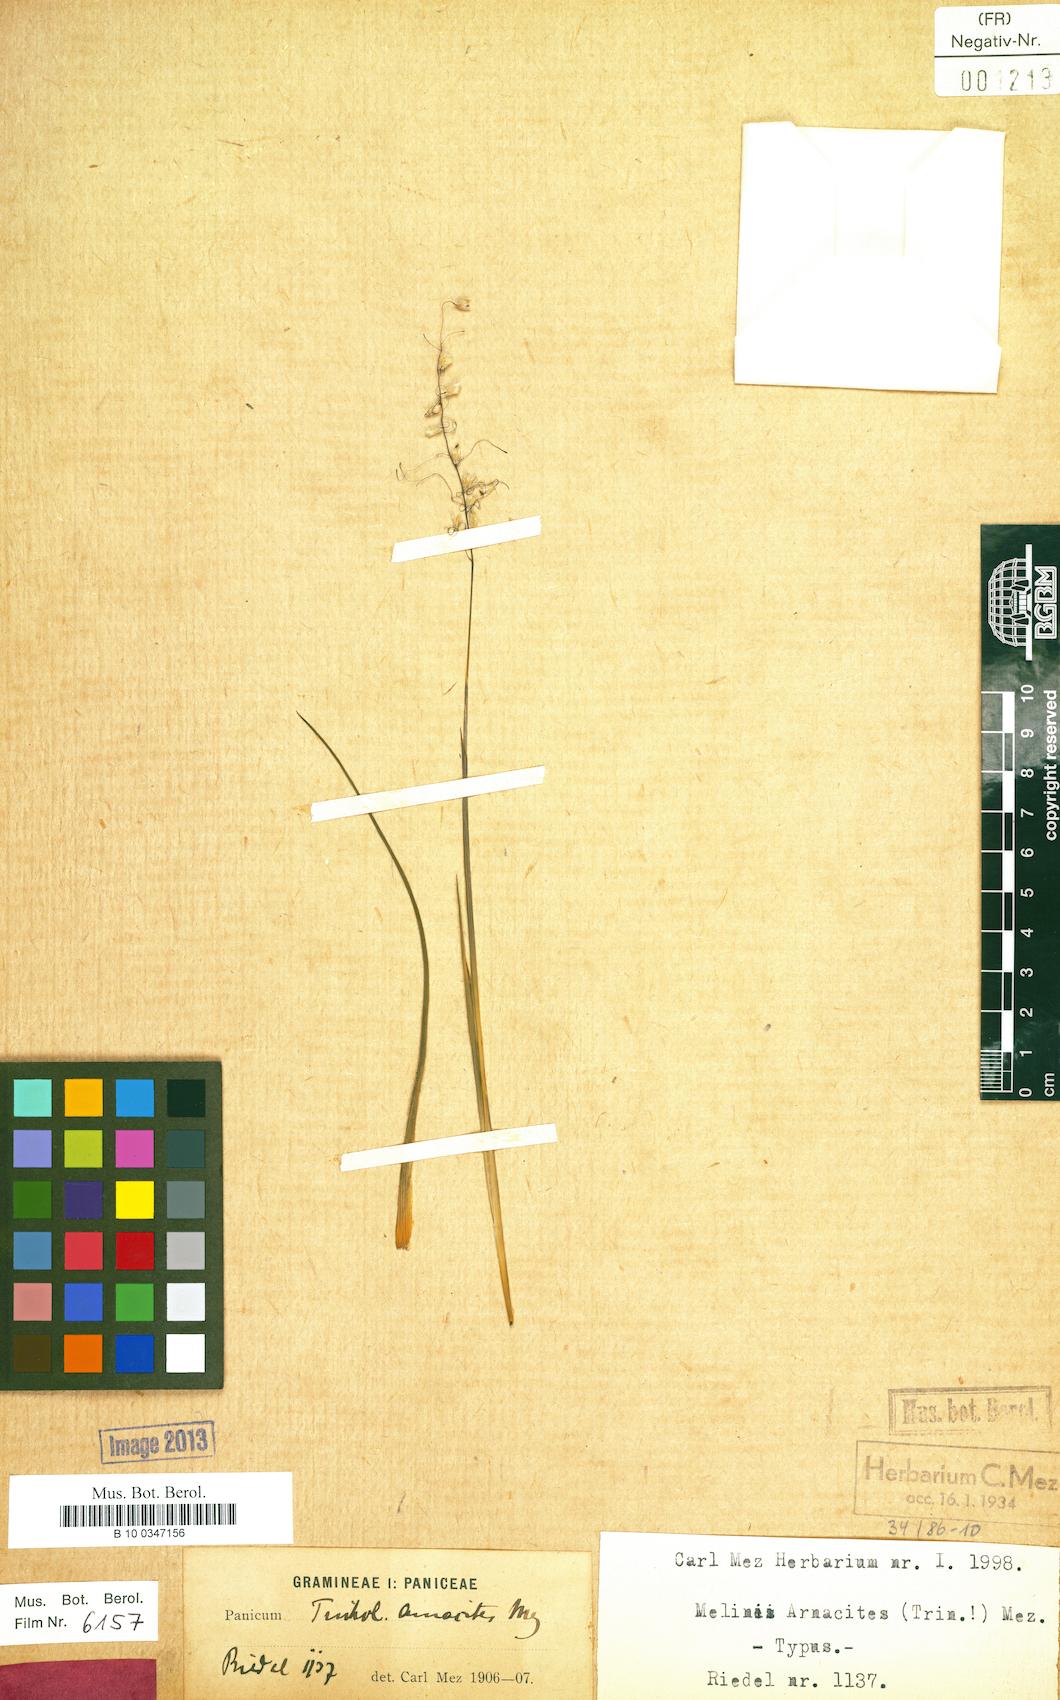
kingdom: Plantae
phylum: Tracheophyta
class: Liliopsida
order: Poales
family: Poaceae
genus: Tatianyx
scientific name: Tatianyx arnacites
